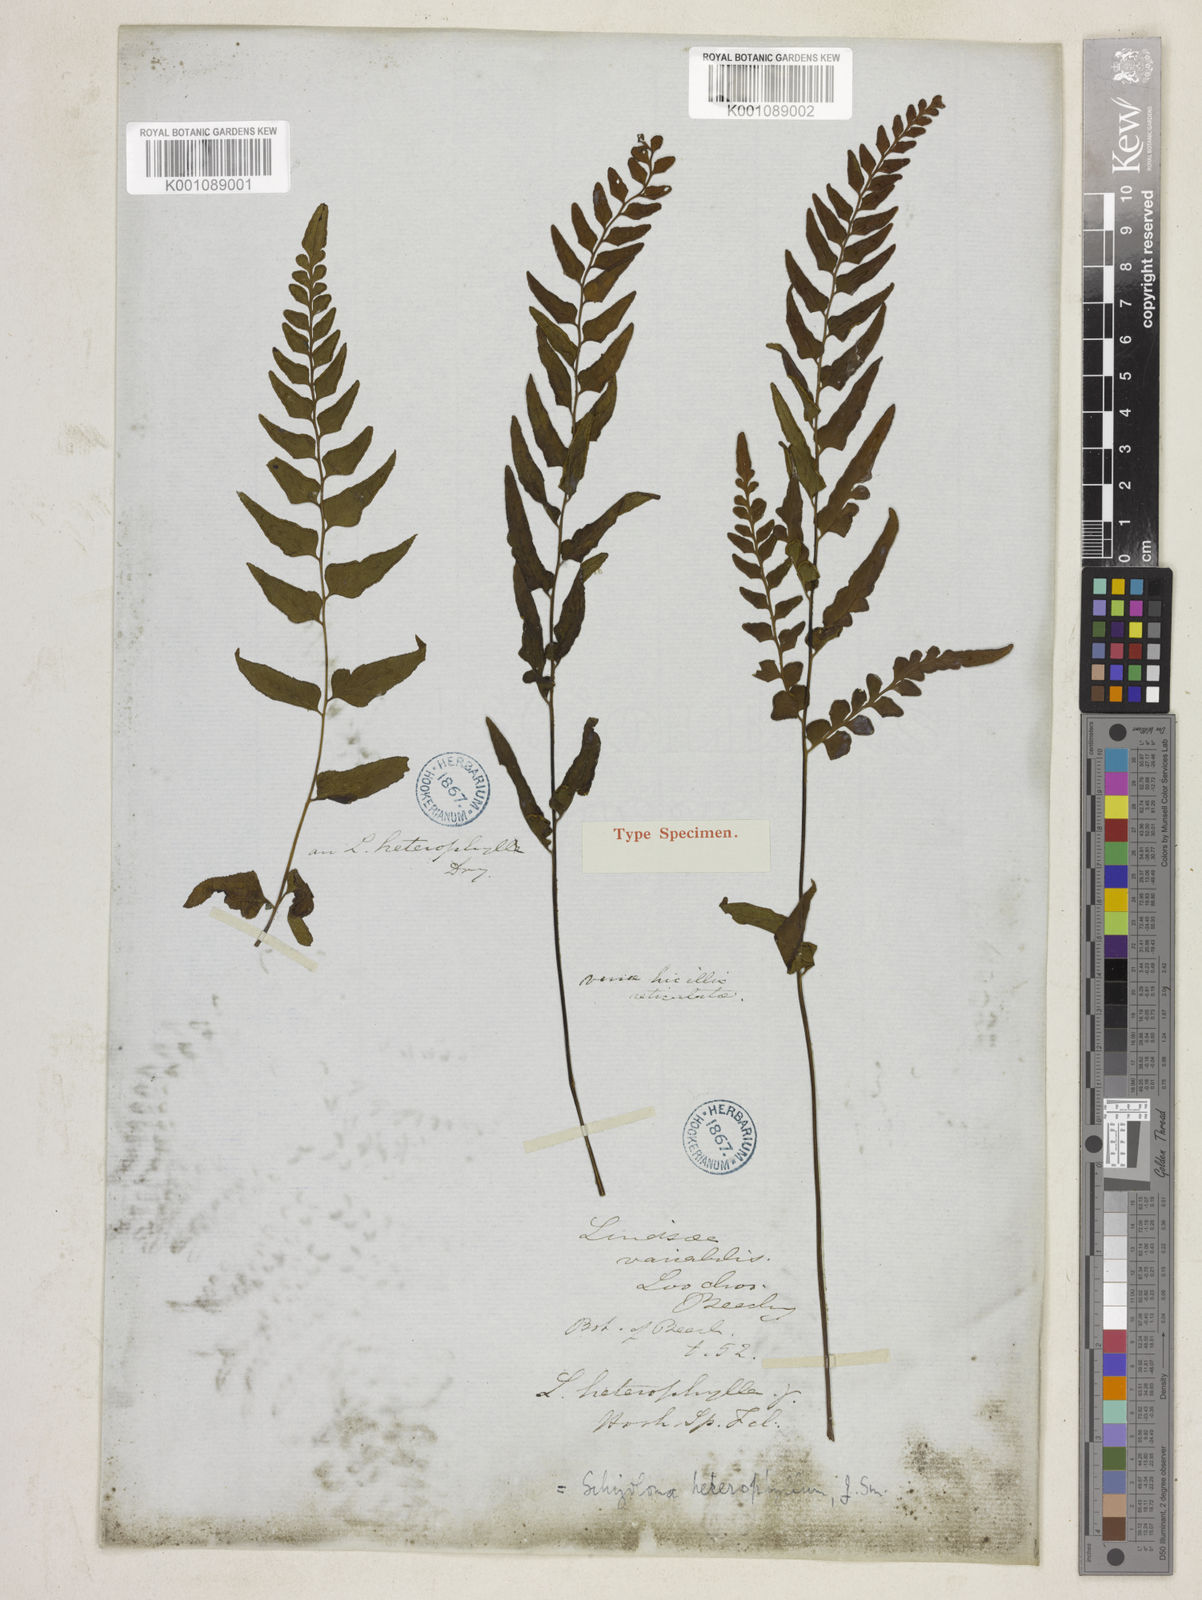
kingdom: Plantae
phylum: Tracheophyta
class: Polypodiopsida
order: Polypodiales
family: Lindsaeaceae
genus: Lindsaea
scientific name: Lindsaea heterophylla
